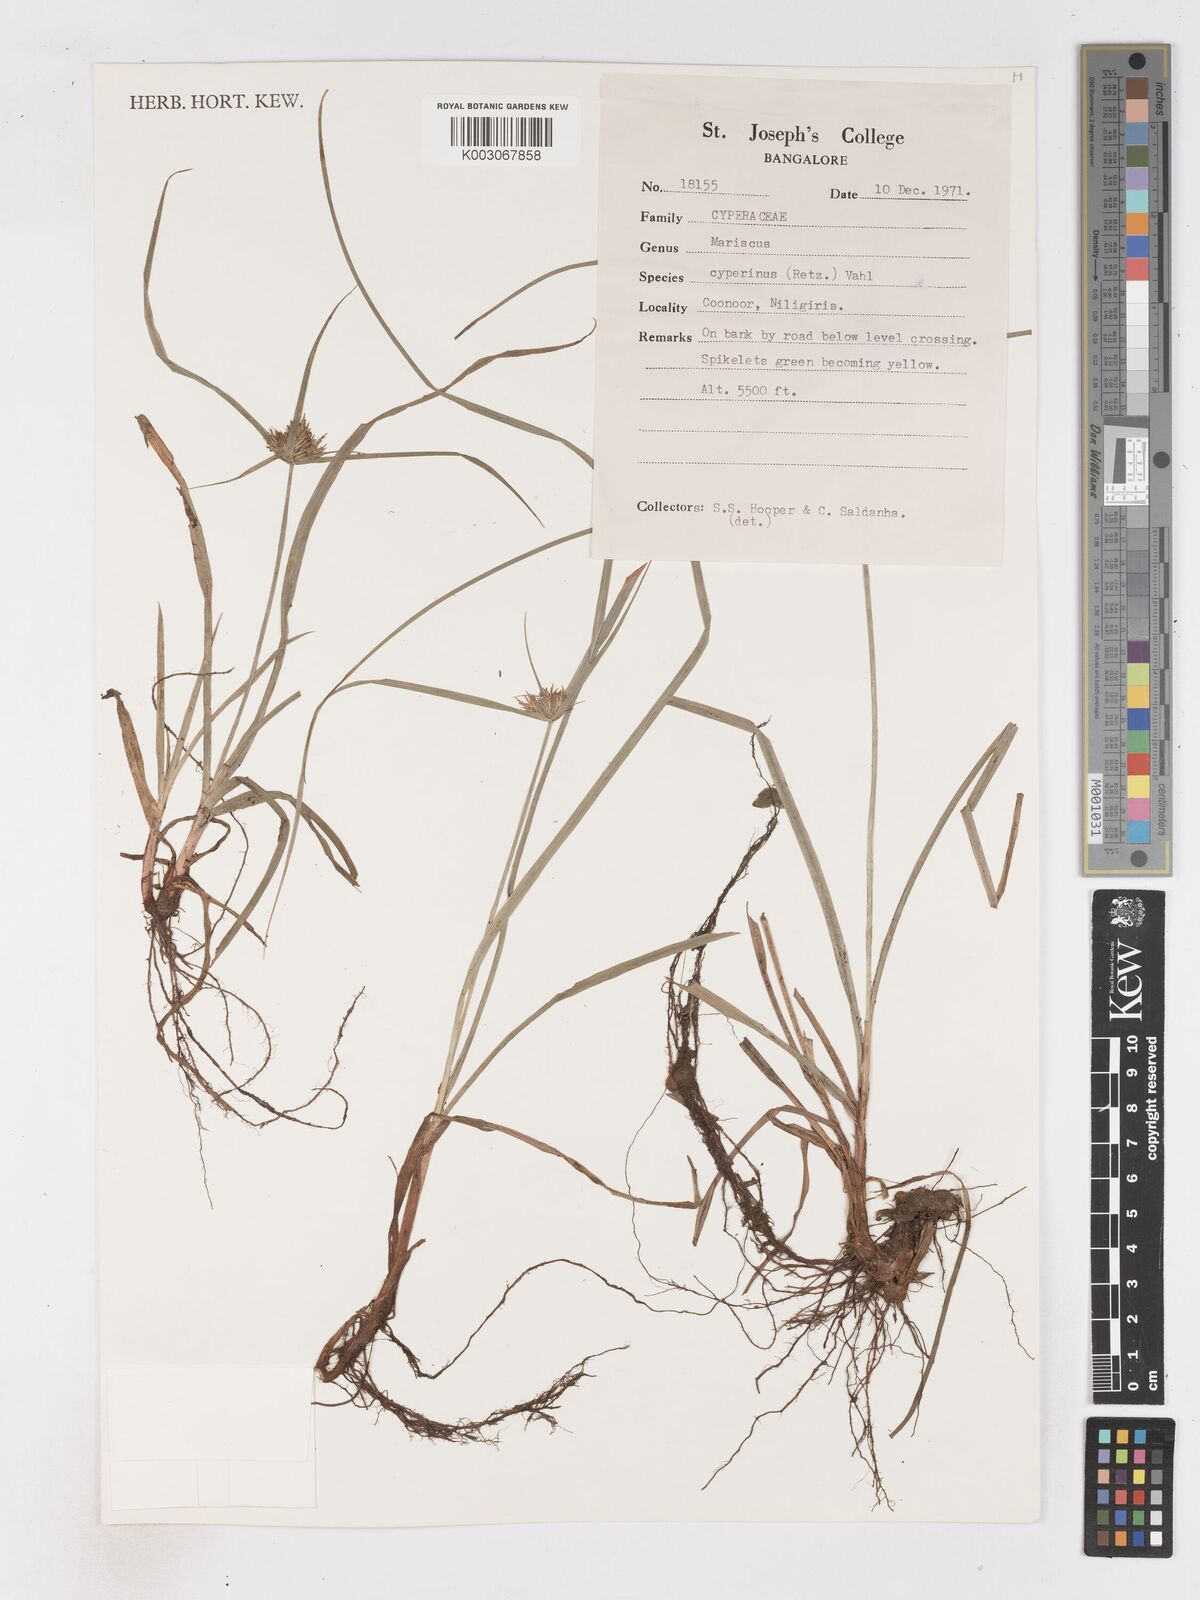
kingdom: Plantae
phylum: Tracheophyta
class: Liliopsida
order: Poales
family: Cyperaceae
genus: Cyperus
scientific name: Cyperus cyperinus
